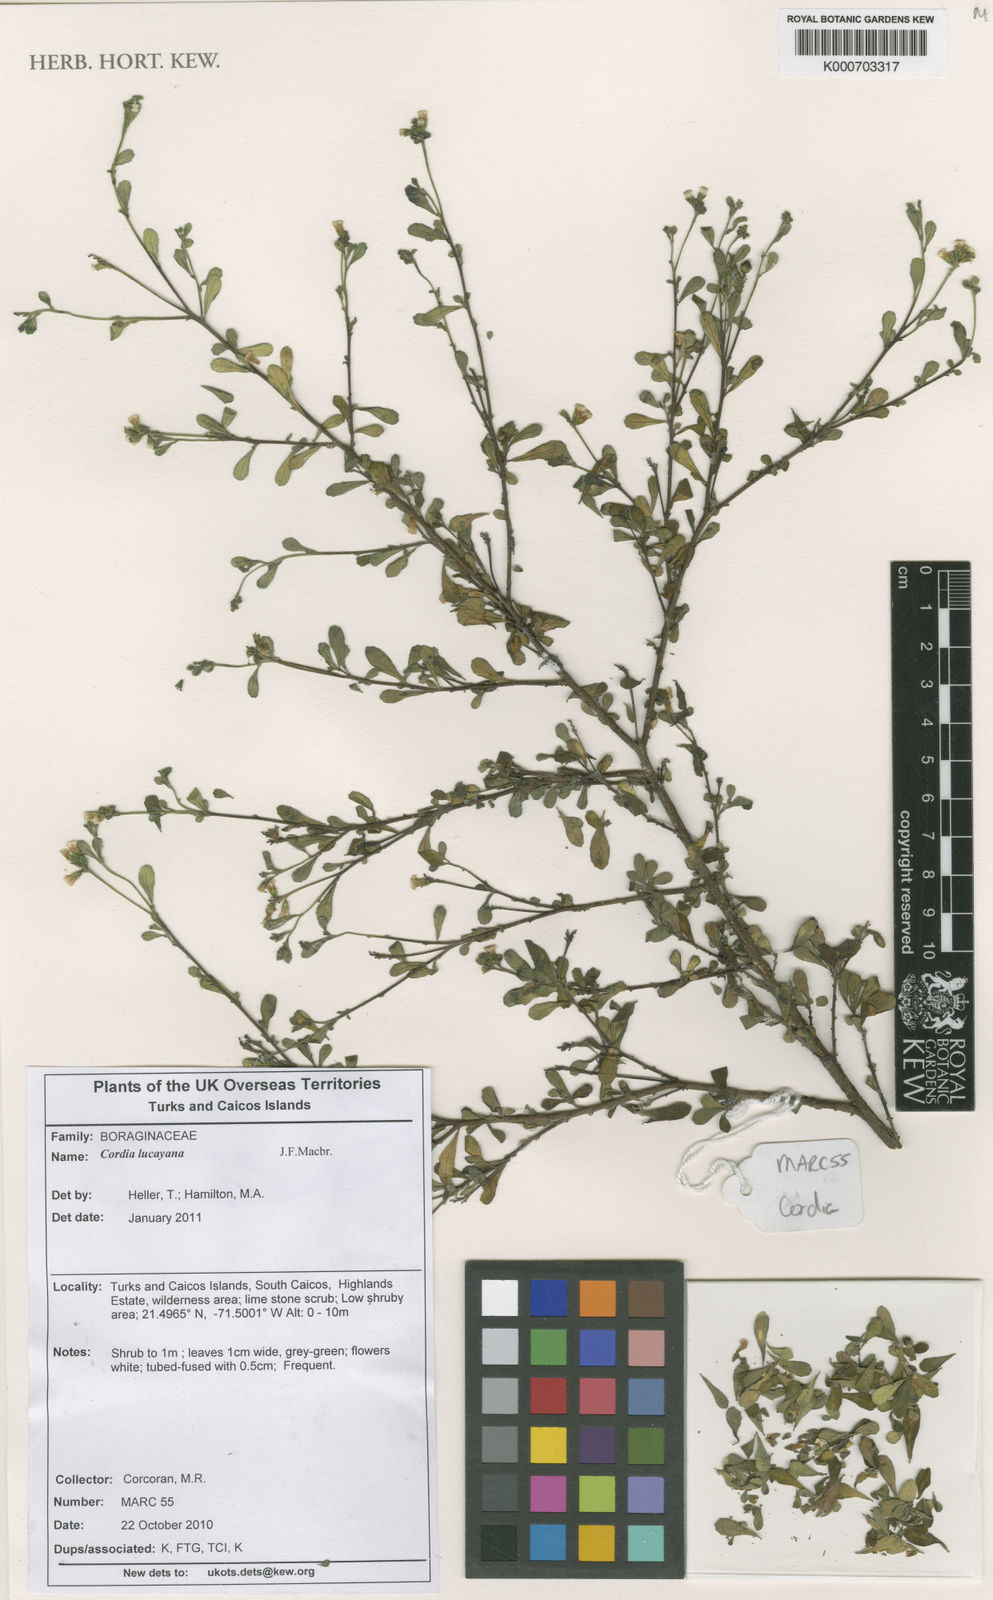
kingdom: Plantae
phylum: Tracheophyta
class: Magnoliopsida
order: Boraginales
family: Cordiaceae
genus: Varronia
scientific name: Varronia lucayana
